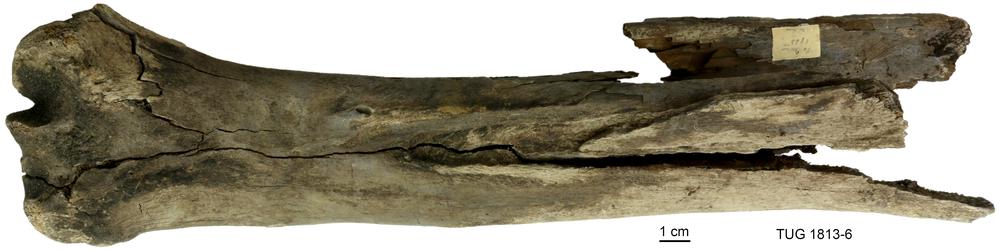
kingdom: Animalia
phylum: Chordata
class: Mammalia
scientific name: Mammalia
